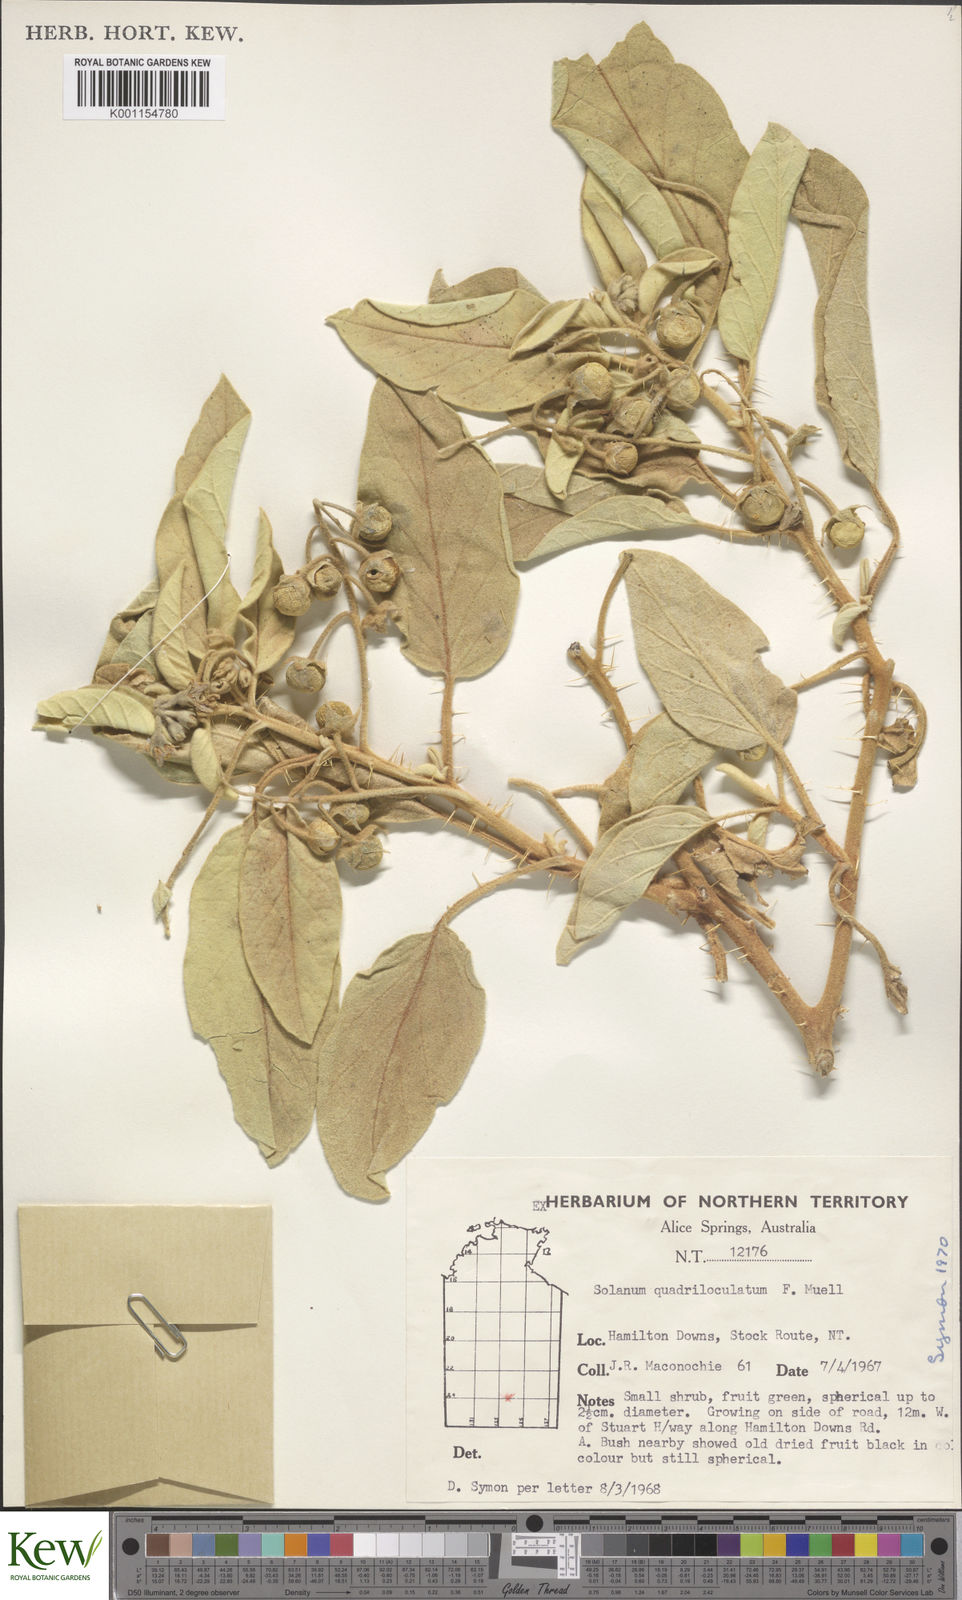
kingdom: Plantae
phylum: Tracheophyta
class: Magnoliopsida
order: Solanales
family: Solanaceae
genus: Solanum
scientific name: Solanum quadriloculatum
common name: Wild tomato
